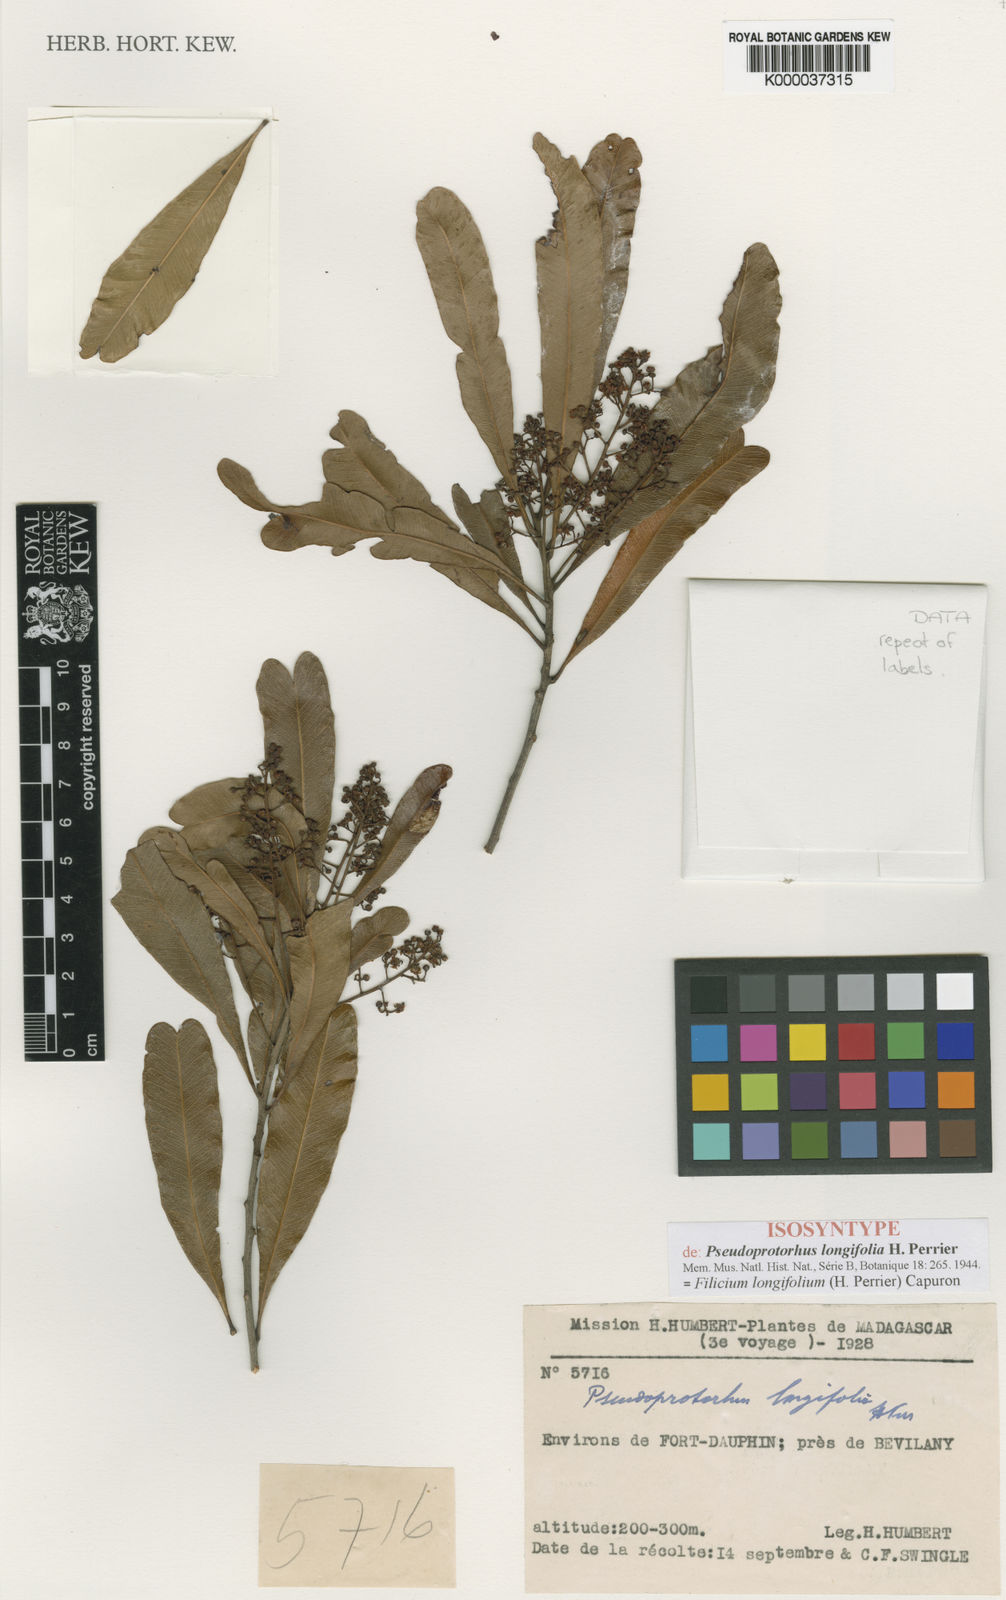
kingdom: Plantae
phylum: Tracheophyta
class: Magnoliopsida
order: Sapindales
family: Sapindaceae
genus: Filicium
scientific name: Filicium longifolium
